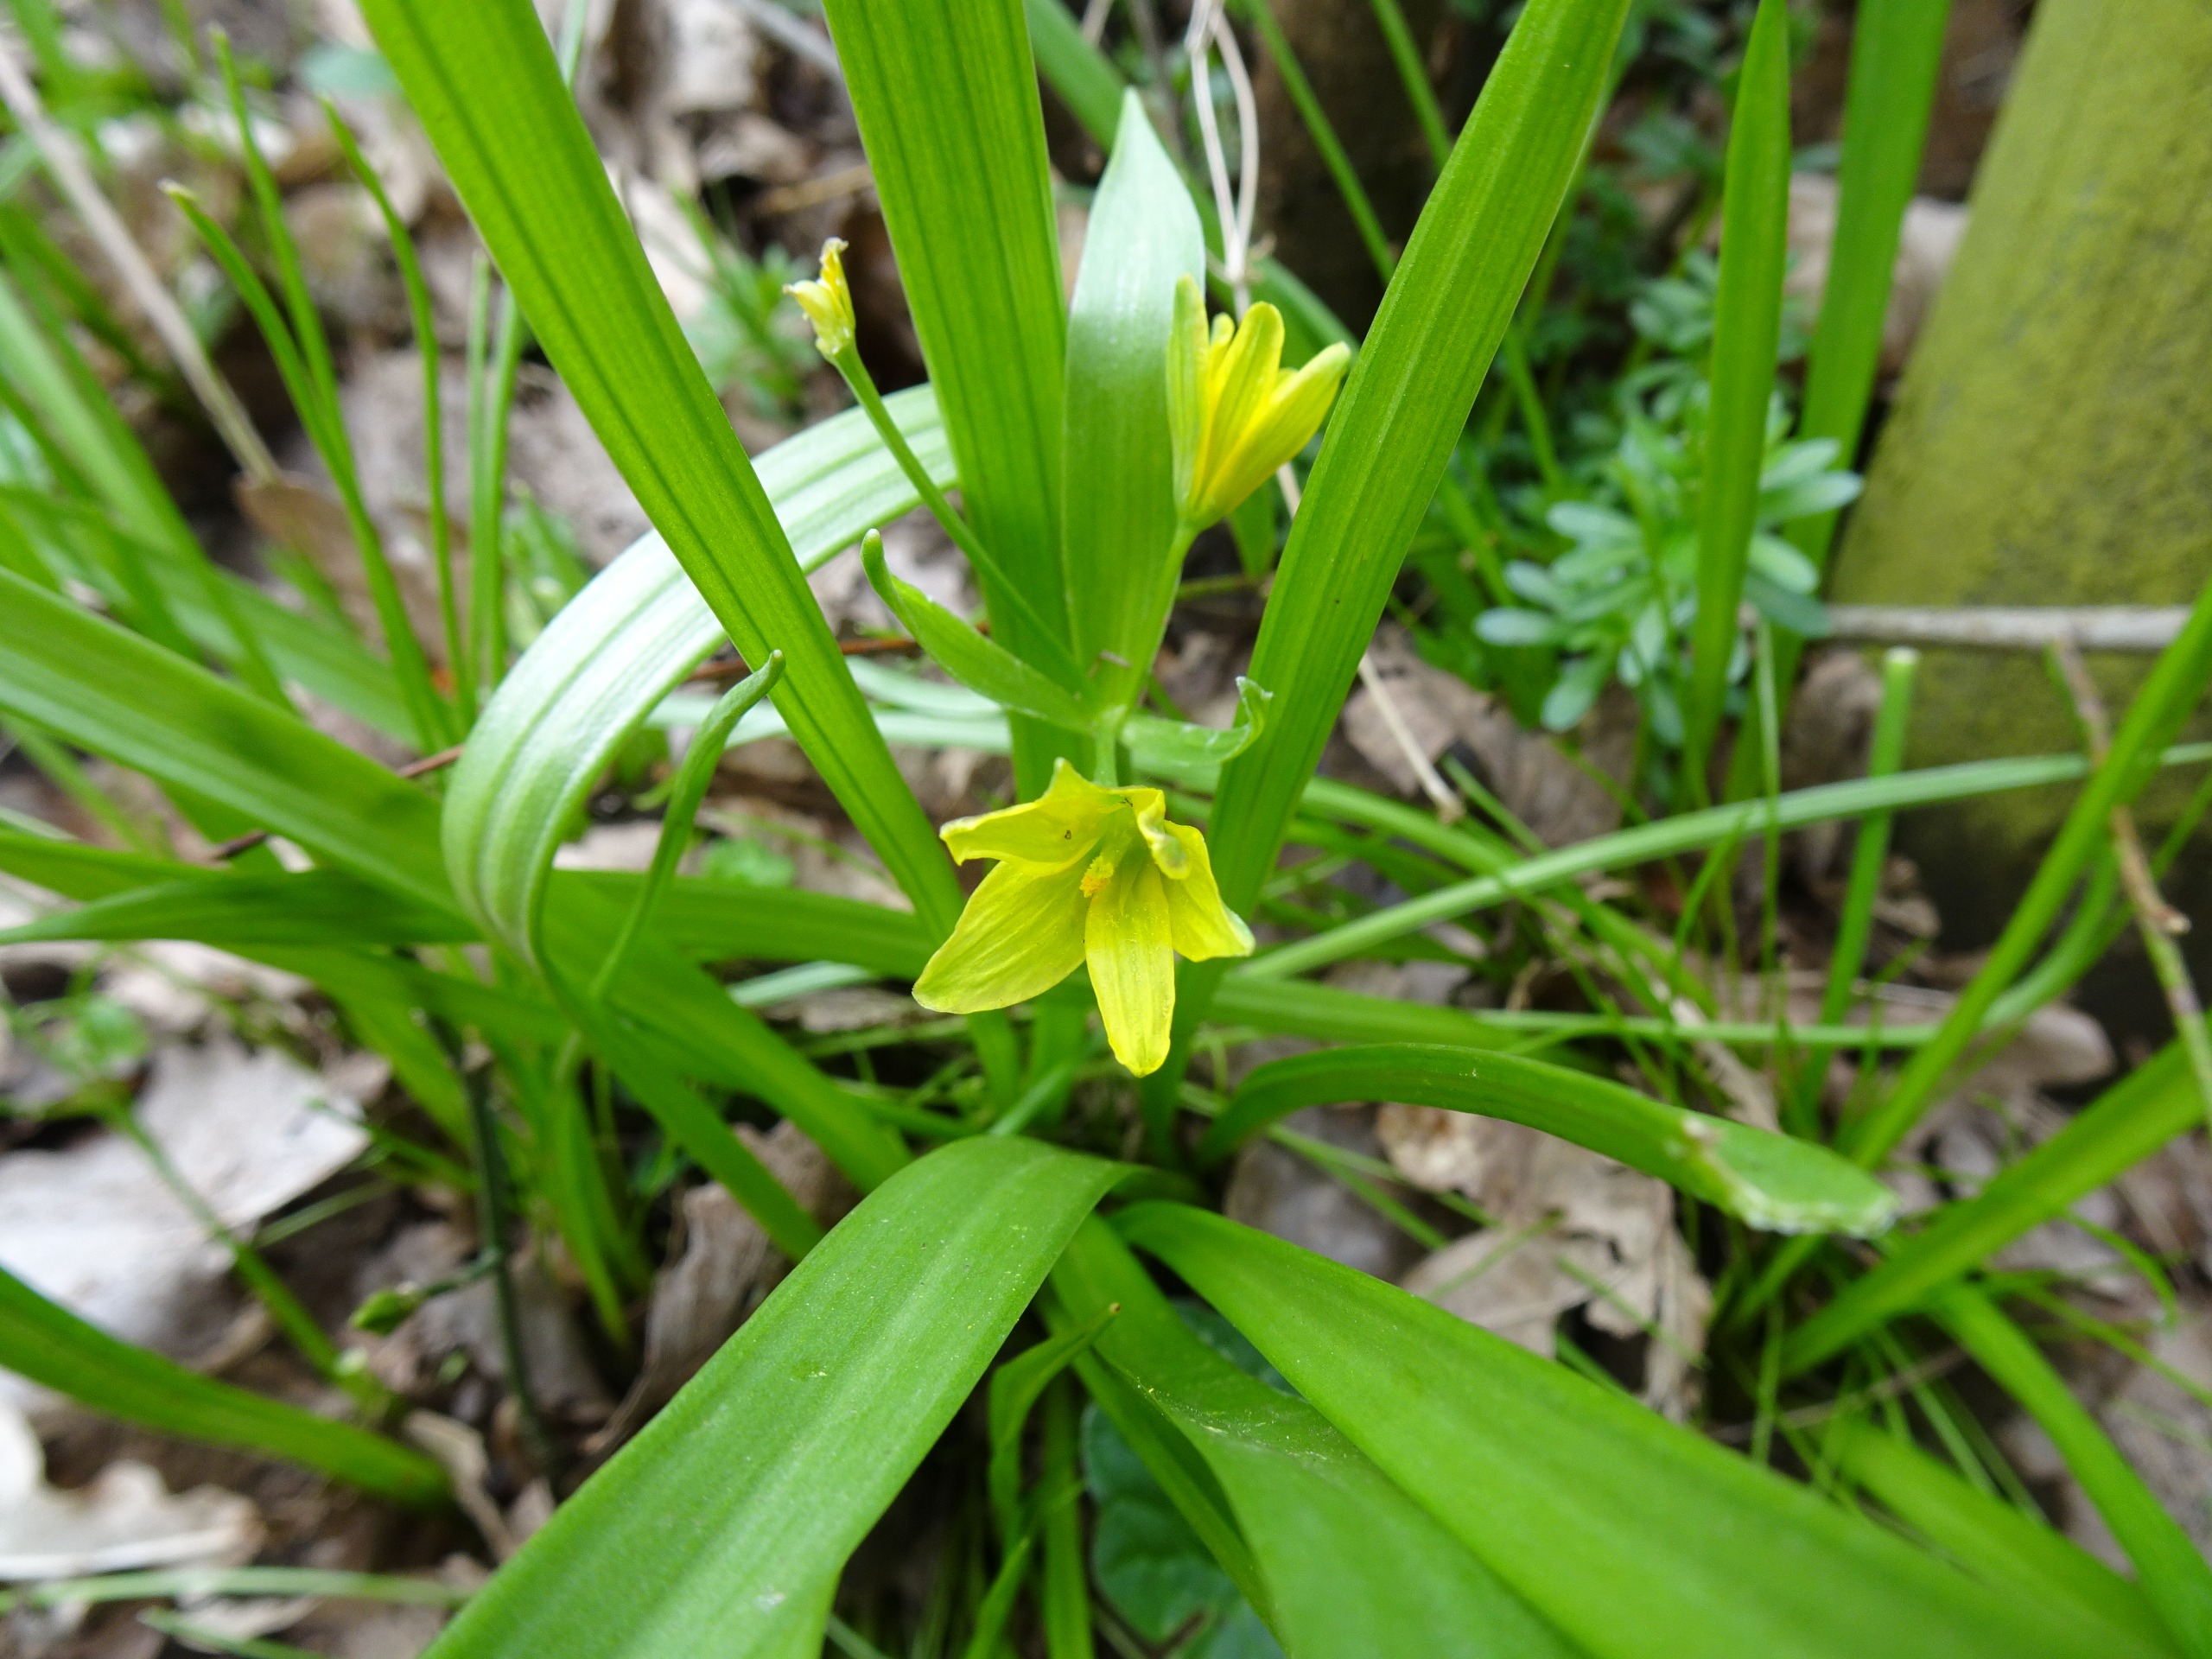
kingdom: Plantae
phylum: Tracheophyta
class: Liliopsida
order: Liliales
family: Liliaceae
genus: Gagea
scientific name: Gagea lutea
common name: Almindelig guldstjerne
